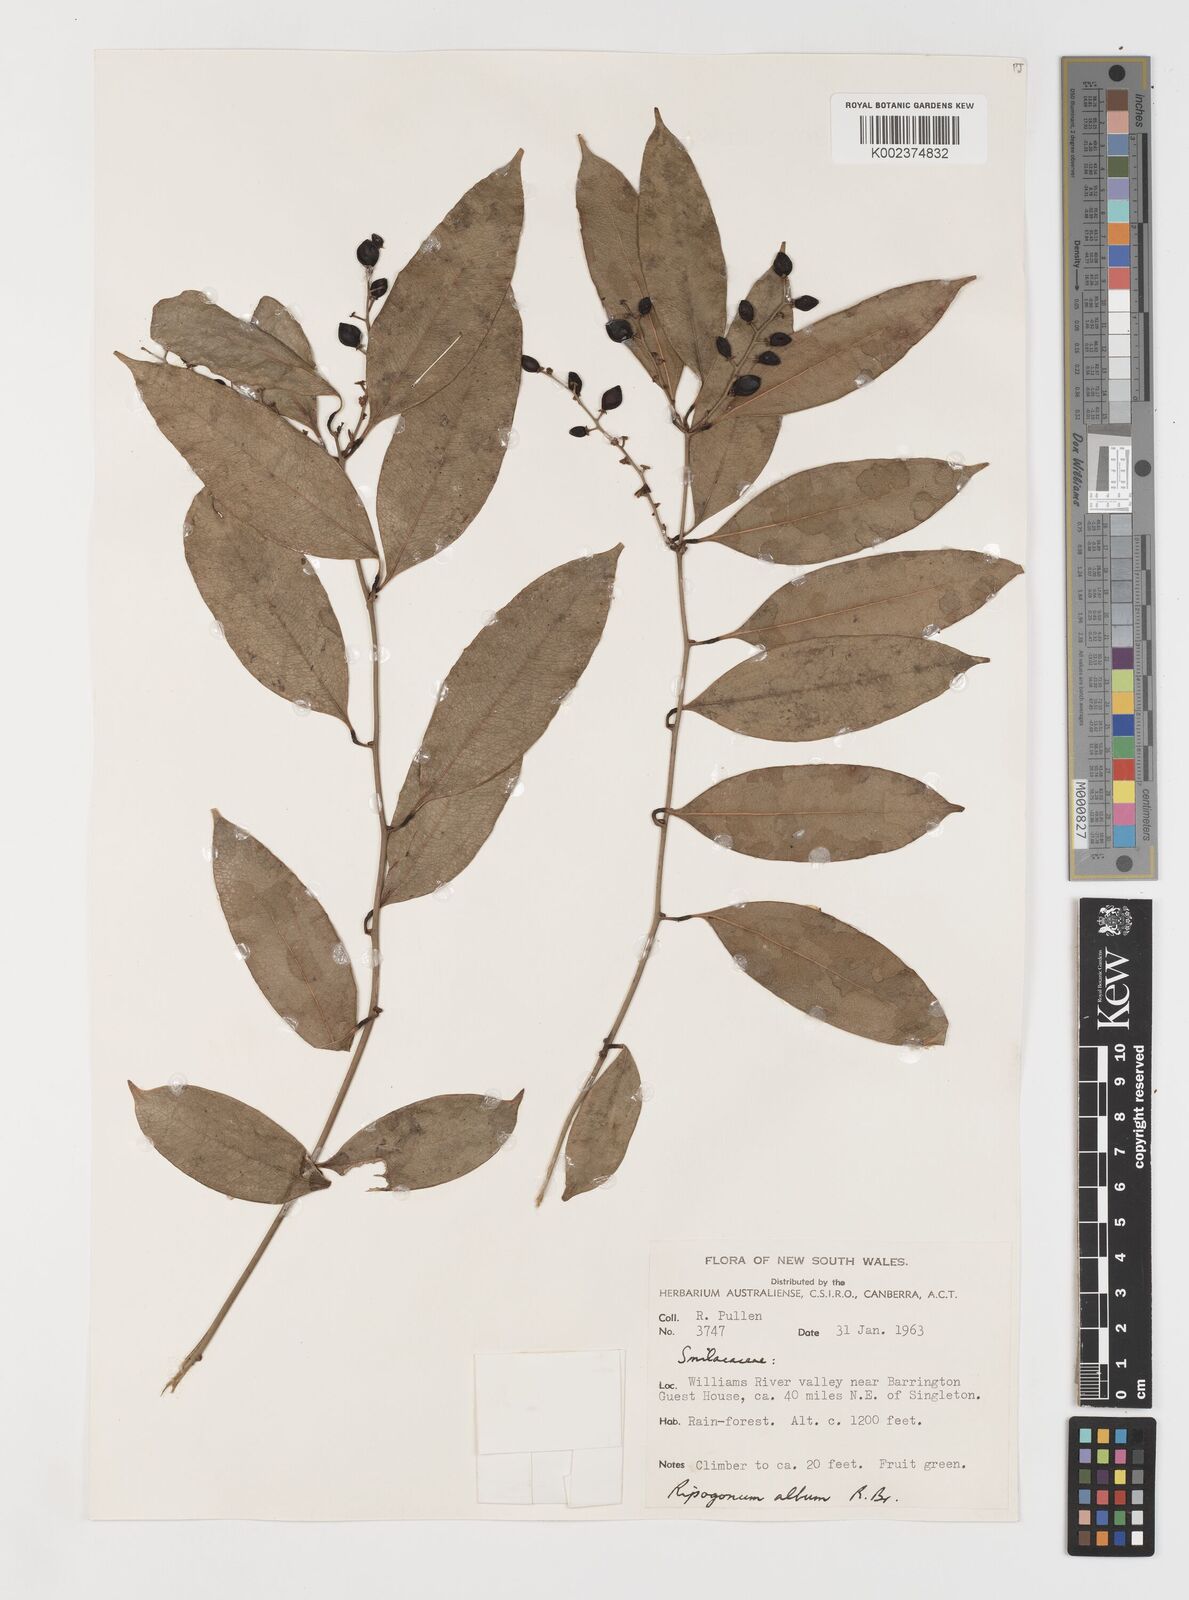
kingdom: Plantae
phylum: Tracheophyta
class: Liliopsida
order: Liliales
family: Ripogonaceae
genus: Ripogonum
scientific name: Ripogonum album
